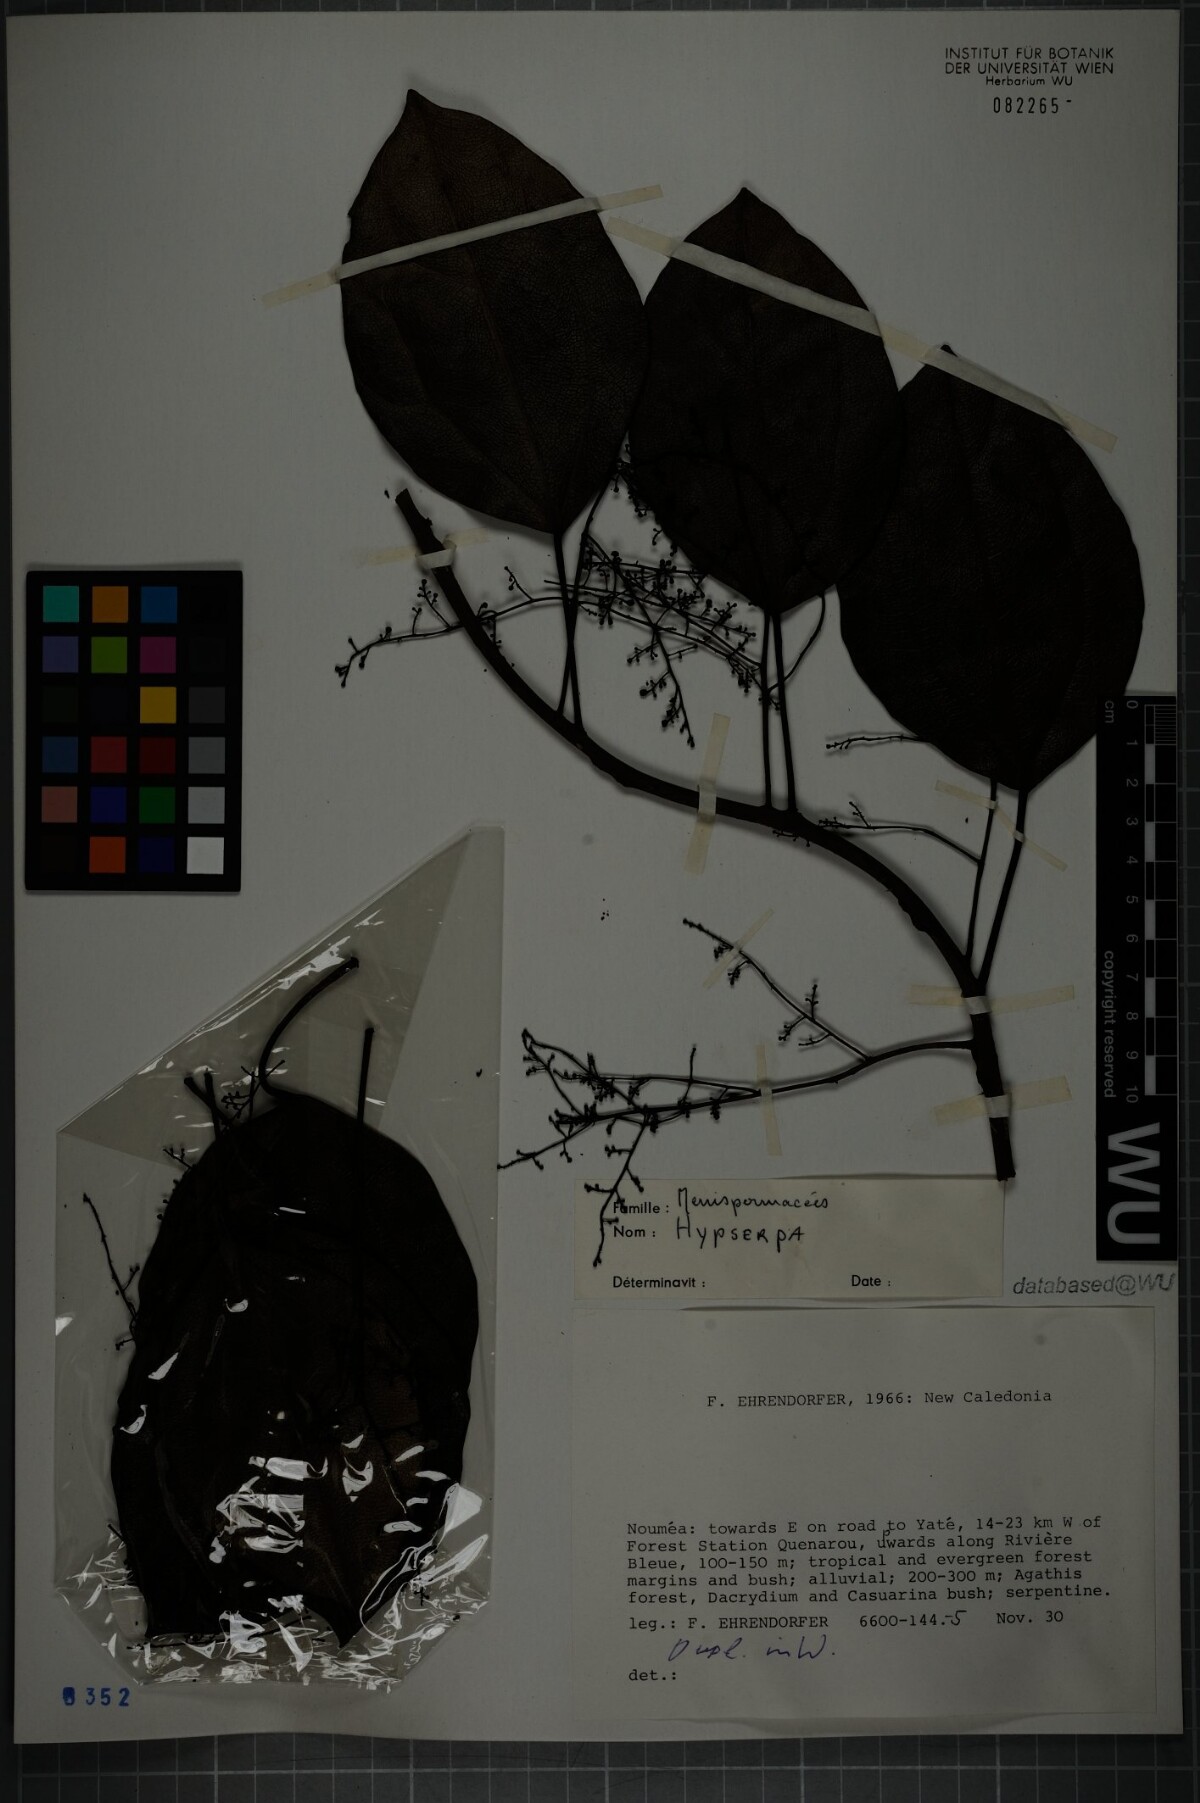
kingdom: Plantae
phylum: Tracheophyta
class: Magnoliopsida
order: Ranunculales
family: Menispermaceae
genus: Hypserpa
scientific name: Hypserpa
